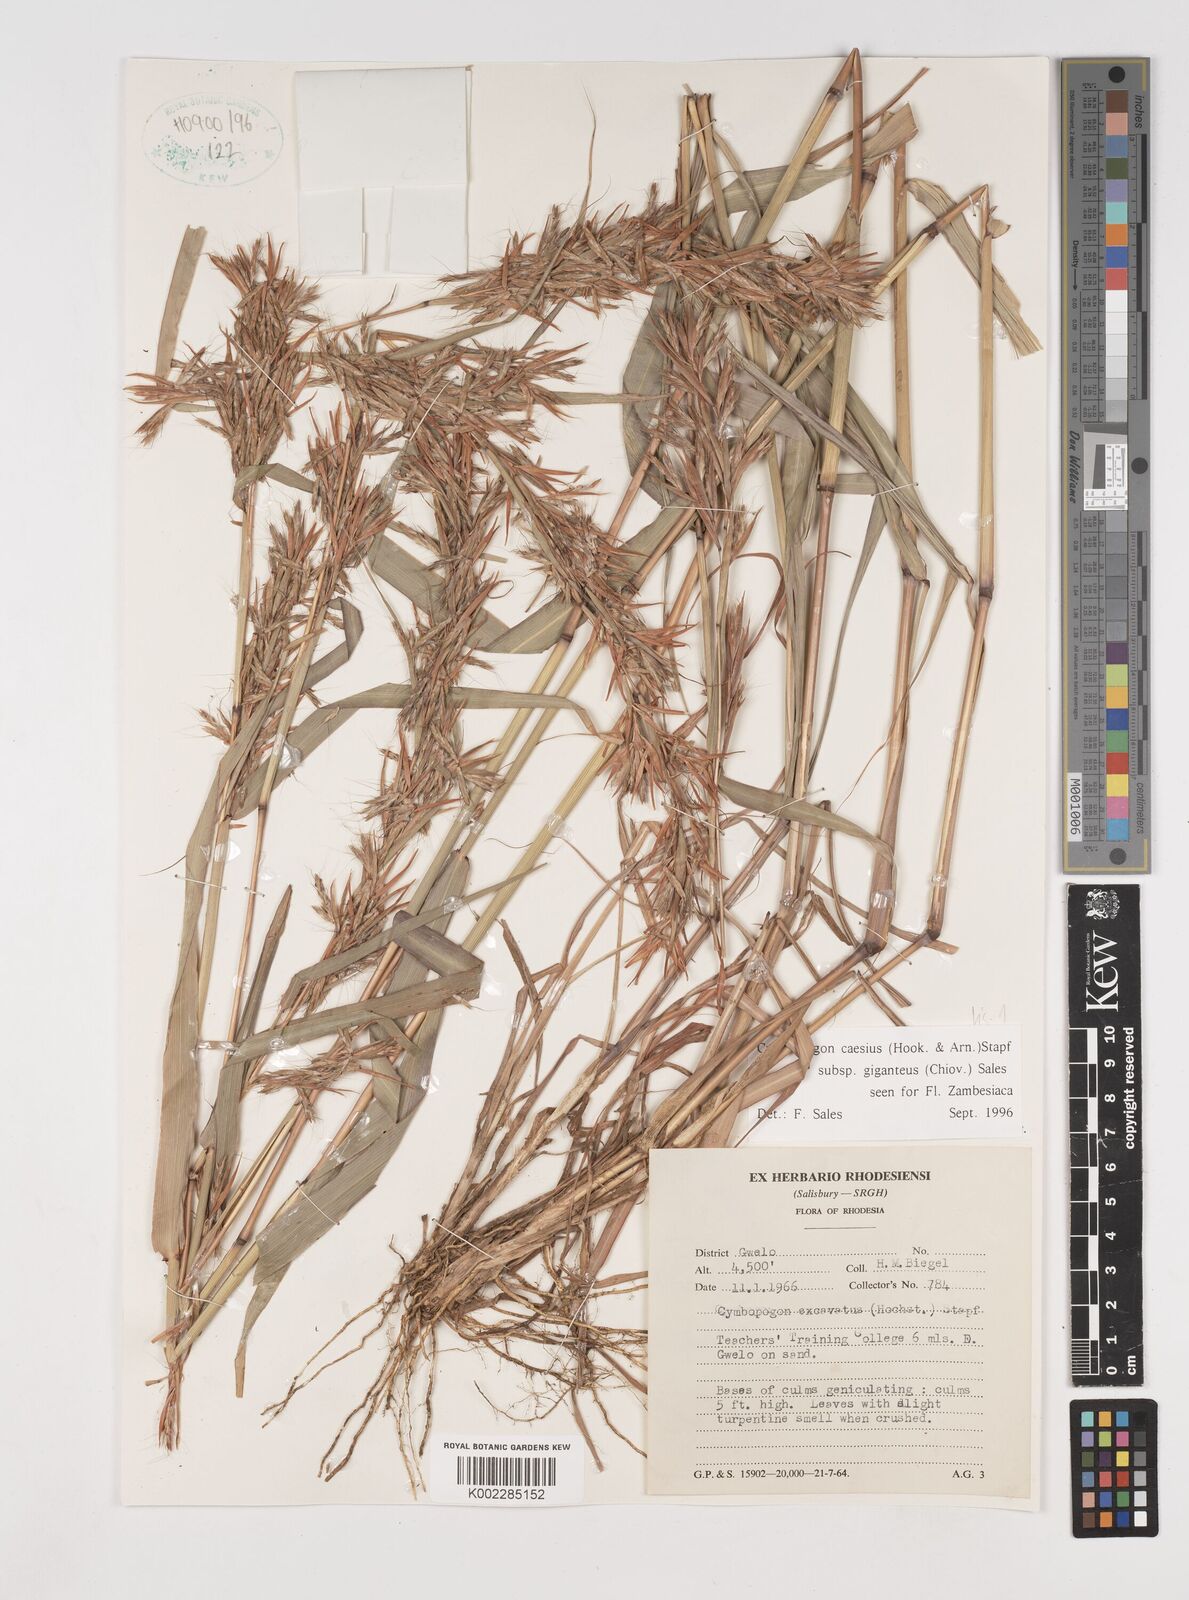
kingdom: Plantae
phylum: Tracheophyta
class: Liliopsida
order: Poales
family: Poaceae
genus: Cymbopogon
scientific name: Cymbopogon giganteus
